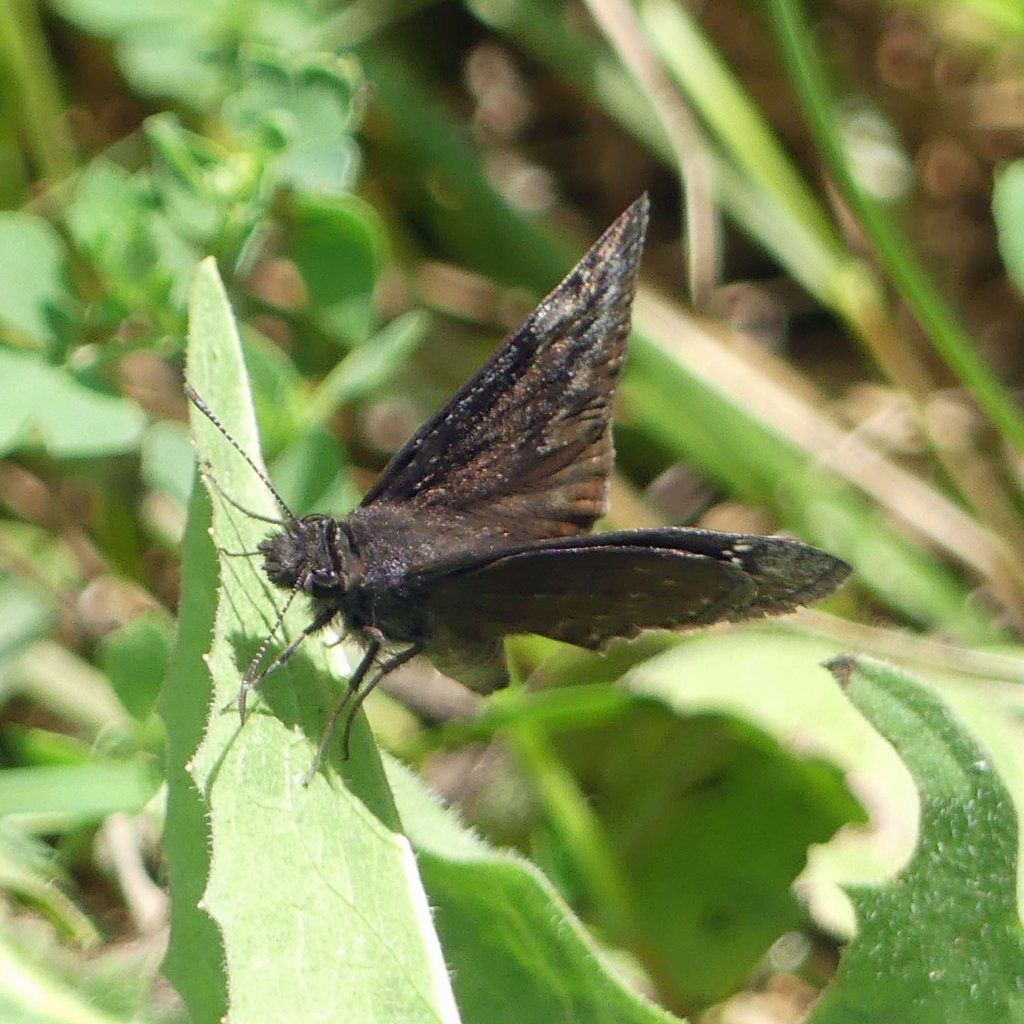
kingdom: Animalia
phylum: Arthropoda
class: Insecta
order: Lepidoptera
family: Hesperiidae
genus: Gesta
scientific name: Gesta
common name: Wild Indigo Duskywing
